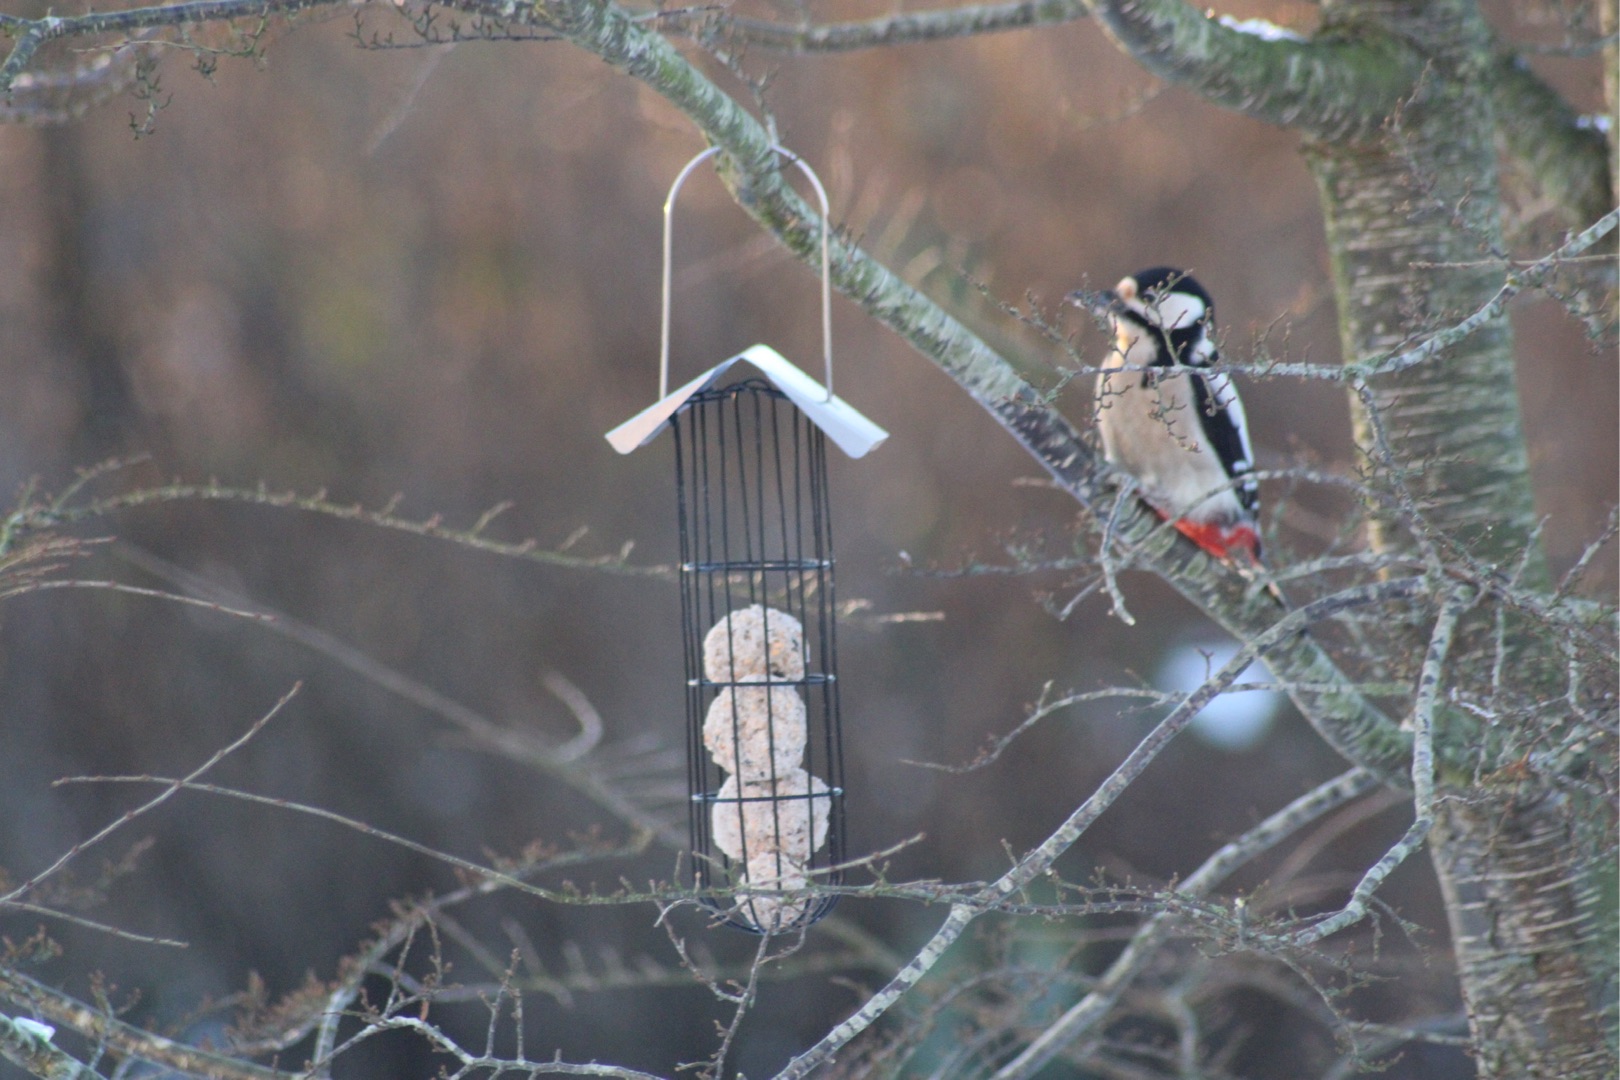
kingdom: Animalia
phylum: Chordata
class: Aves
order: Piciformes
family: Picidae
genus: Dendrocopos
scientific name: Dendrocopos major
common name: Stor flagspætte
